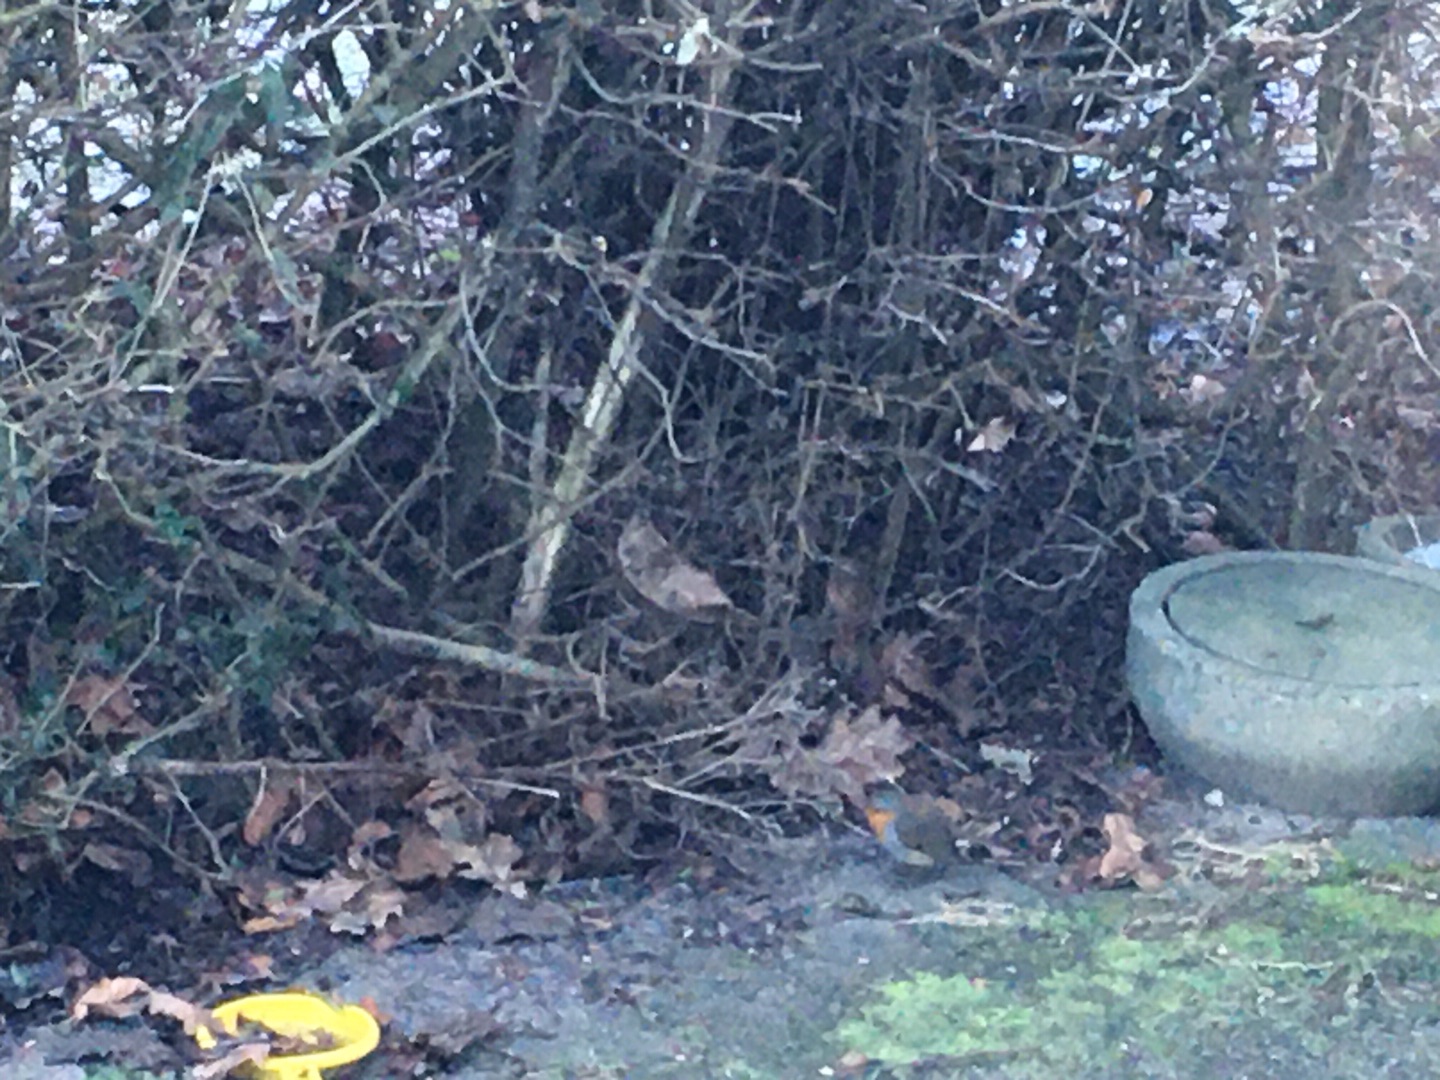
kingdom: Animalia
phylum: Chordata
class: Aves
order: Passeriformes
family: Muscicapidae
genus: Erithacus
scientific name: Erithacus rubecula
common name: Rødhals/rødkælk
